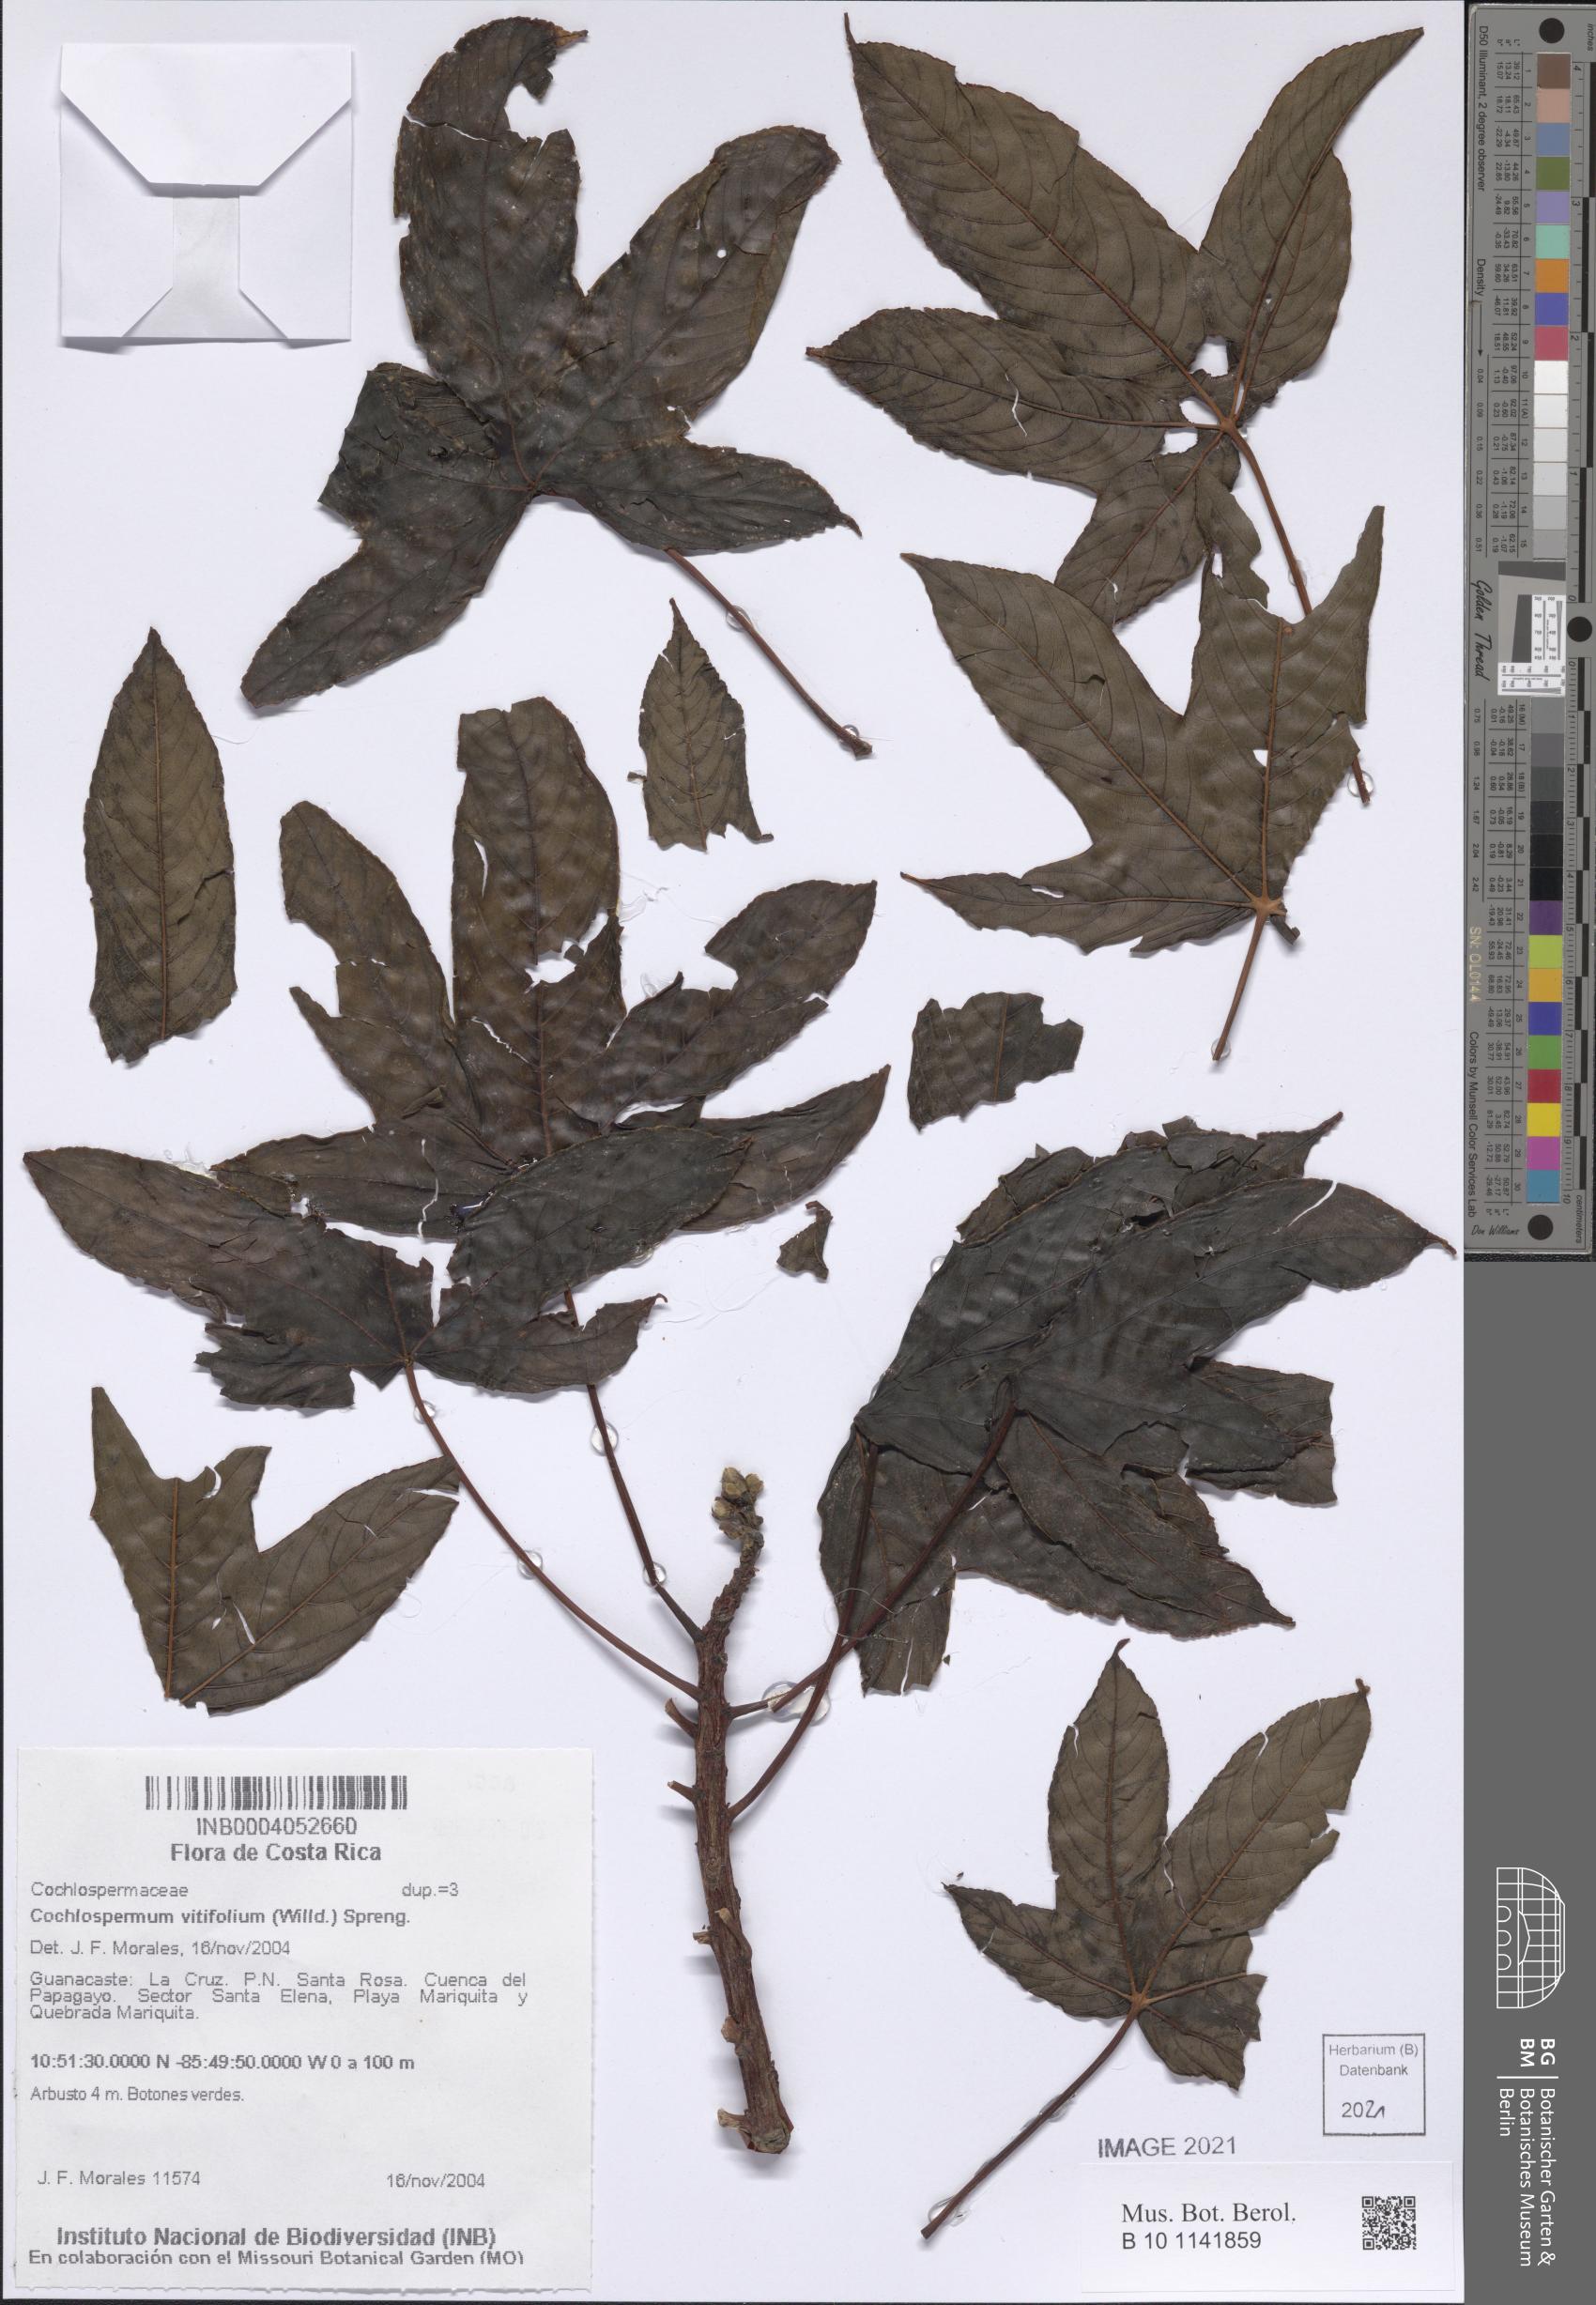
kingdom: Plantae
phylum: Tracheophyta
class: Magnoliopsida
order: Malvales
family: Cochlospermaceae
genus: Cochlospermum
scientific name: Cochlospermum vitifolium
